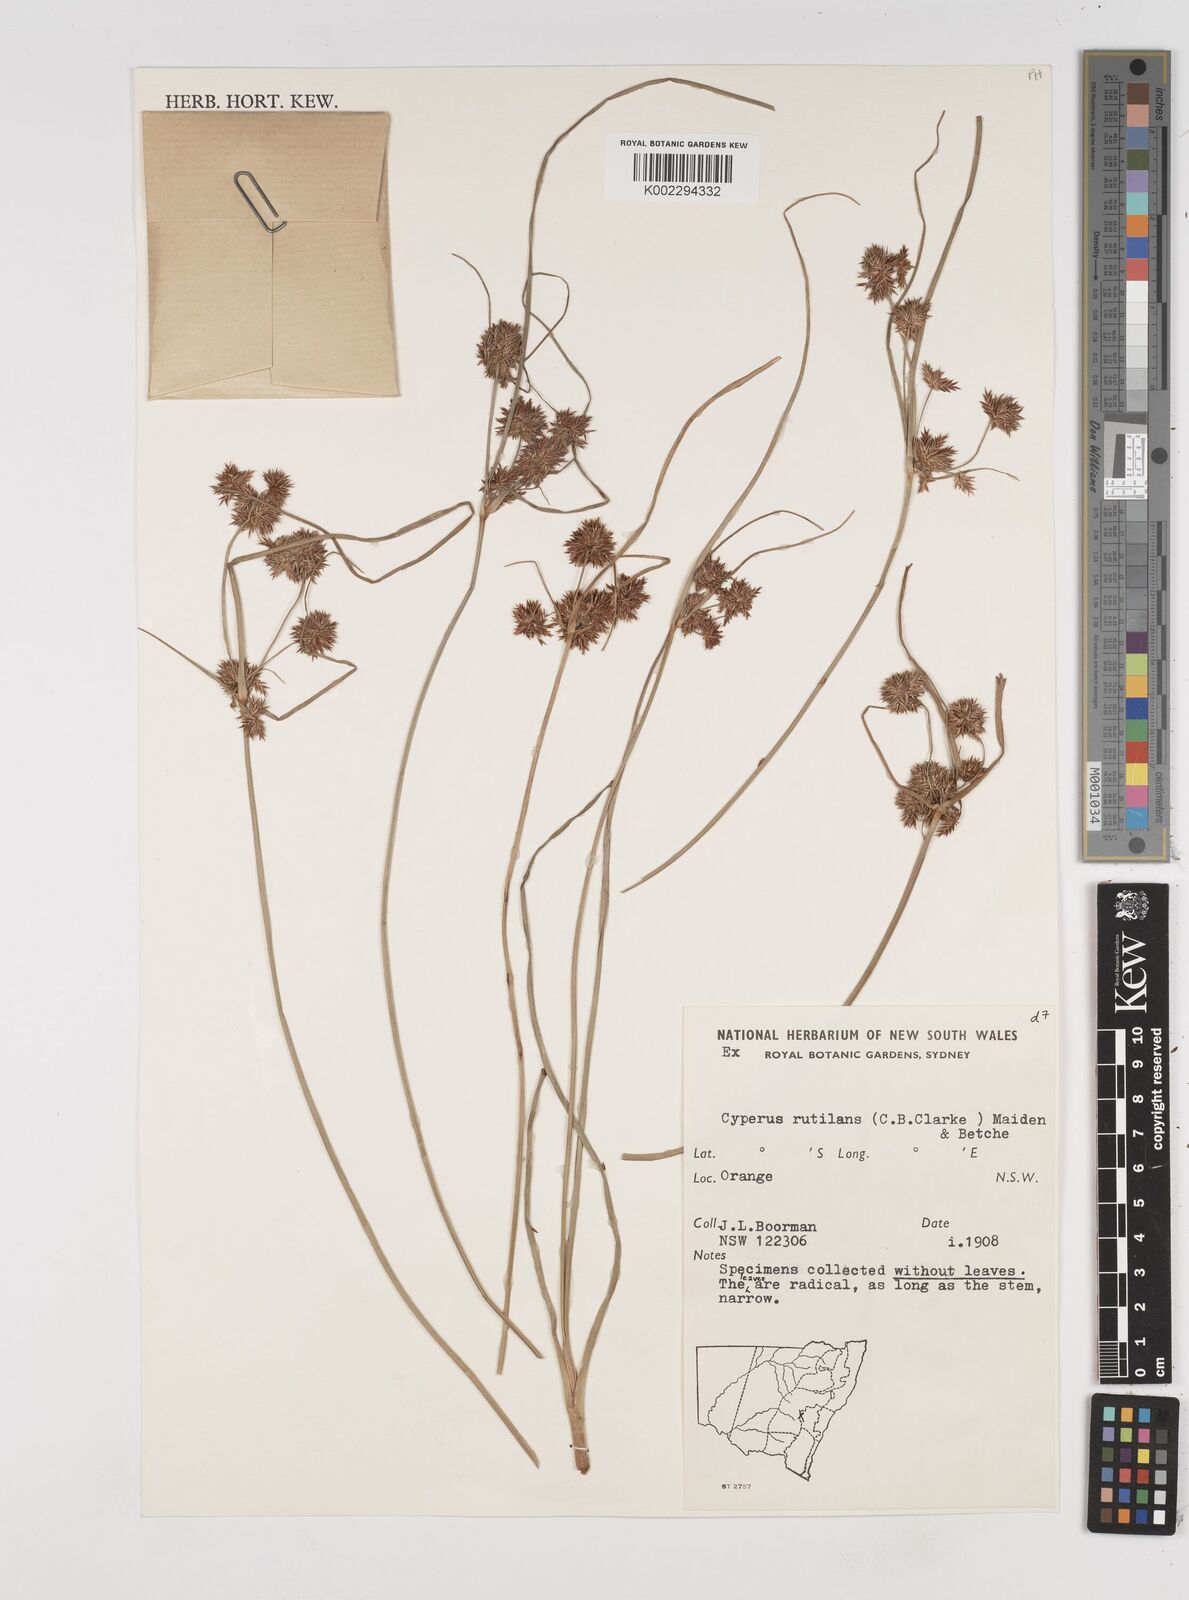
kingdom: Plantae
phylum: Tracheophyta
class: Liliopsida
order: Poales
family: Cyperaceae
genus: Cyperus
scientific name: Cyperus lhotskyanus
